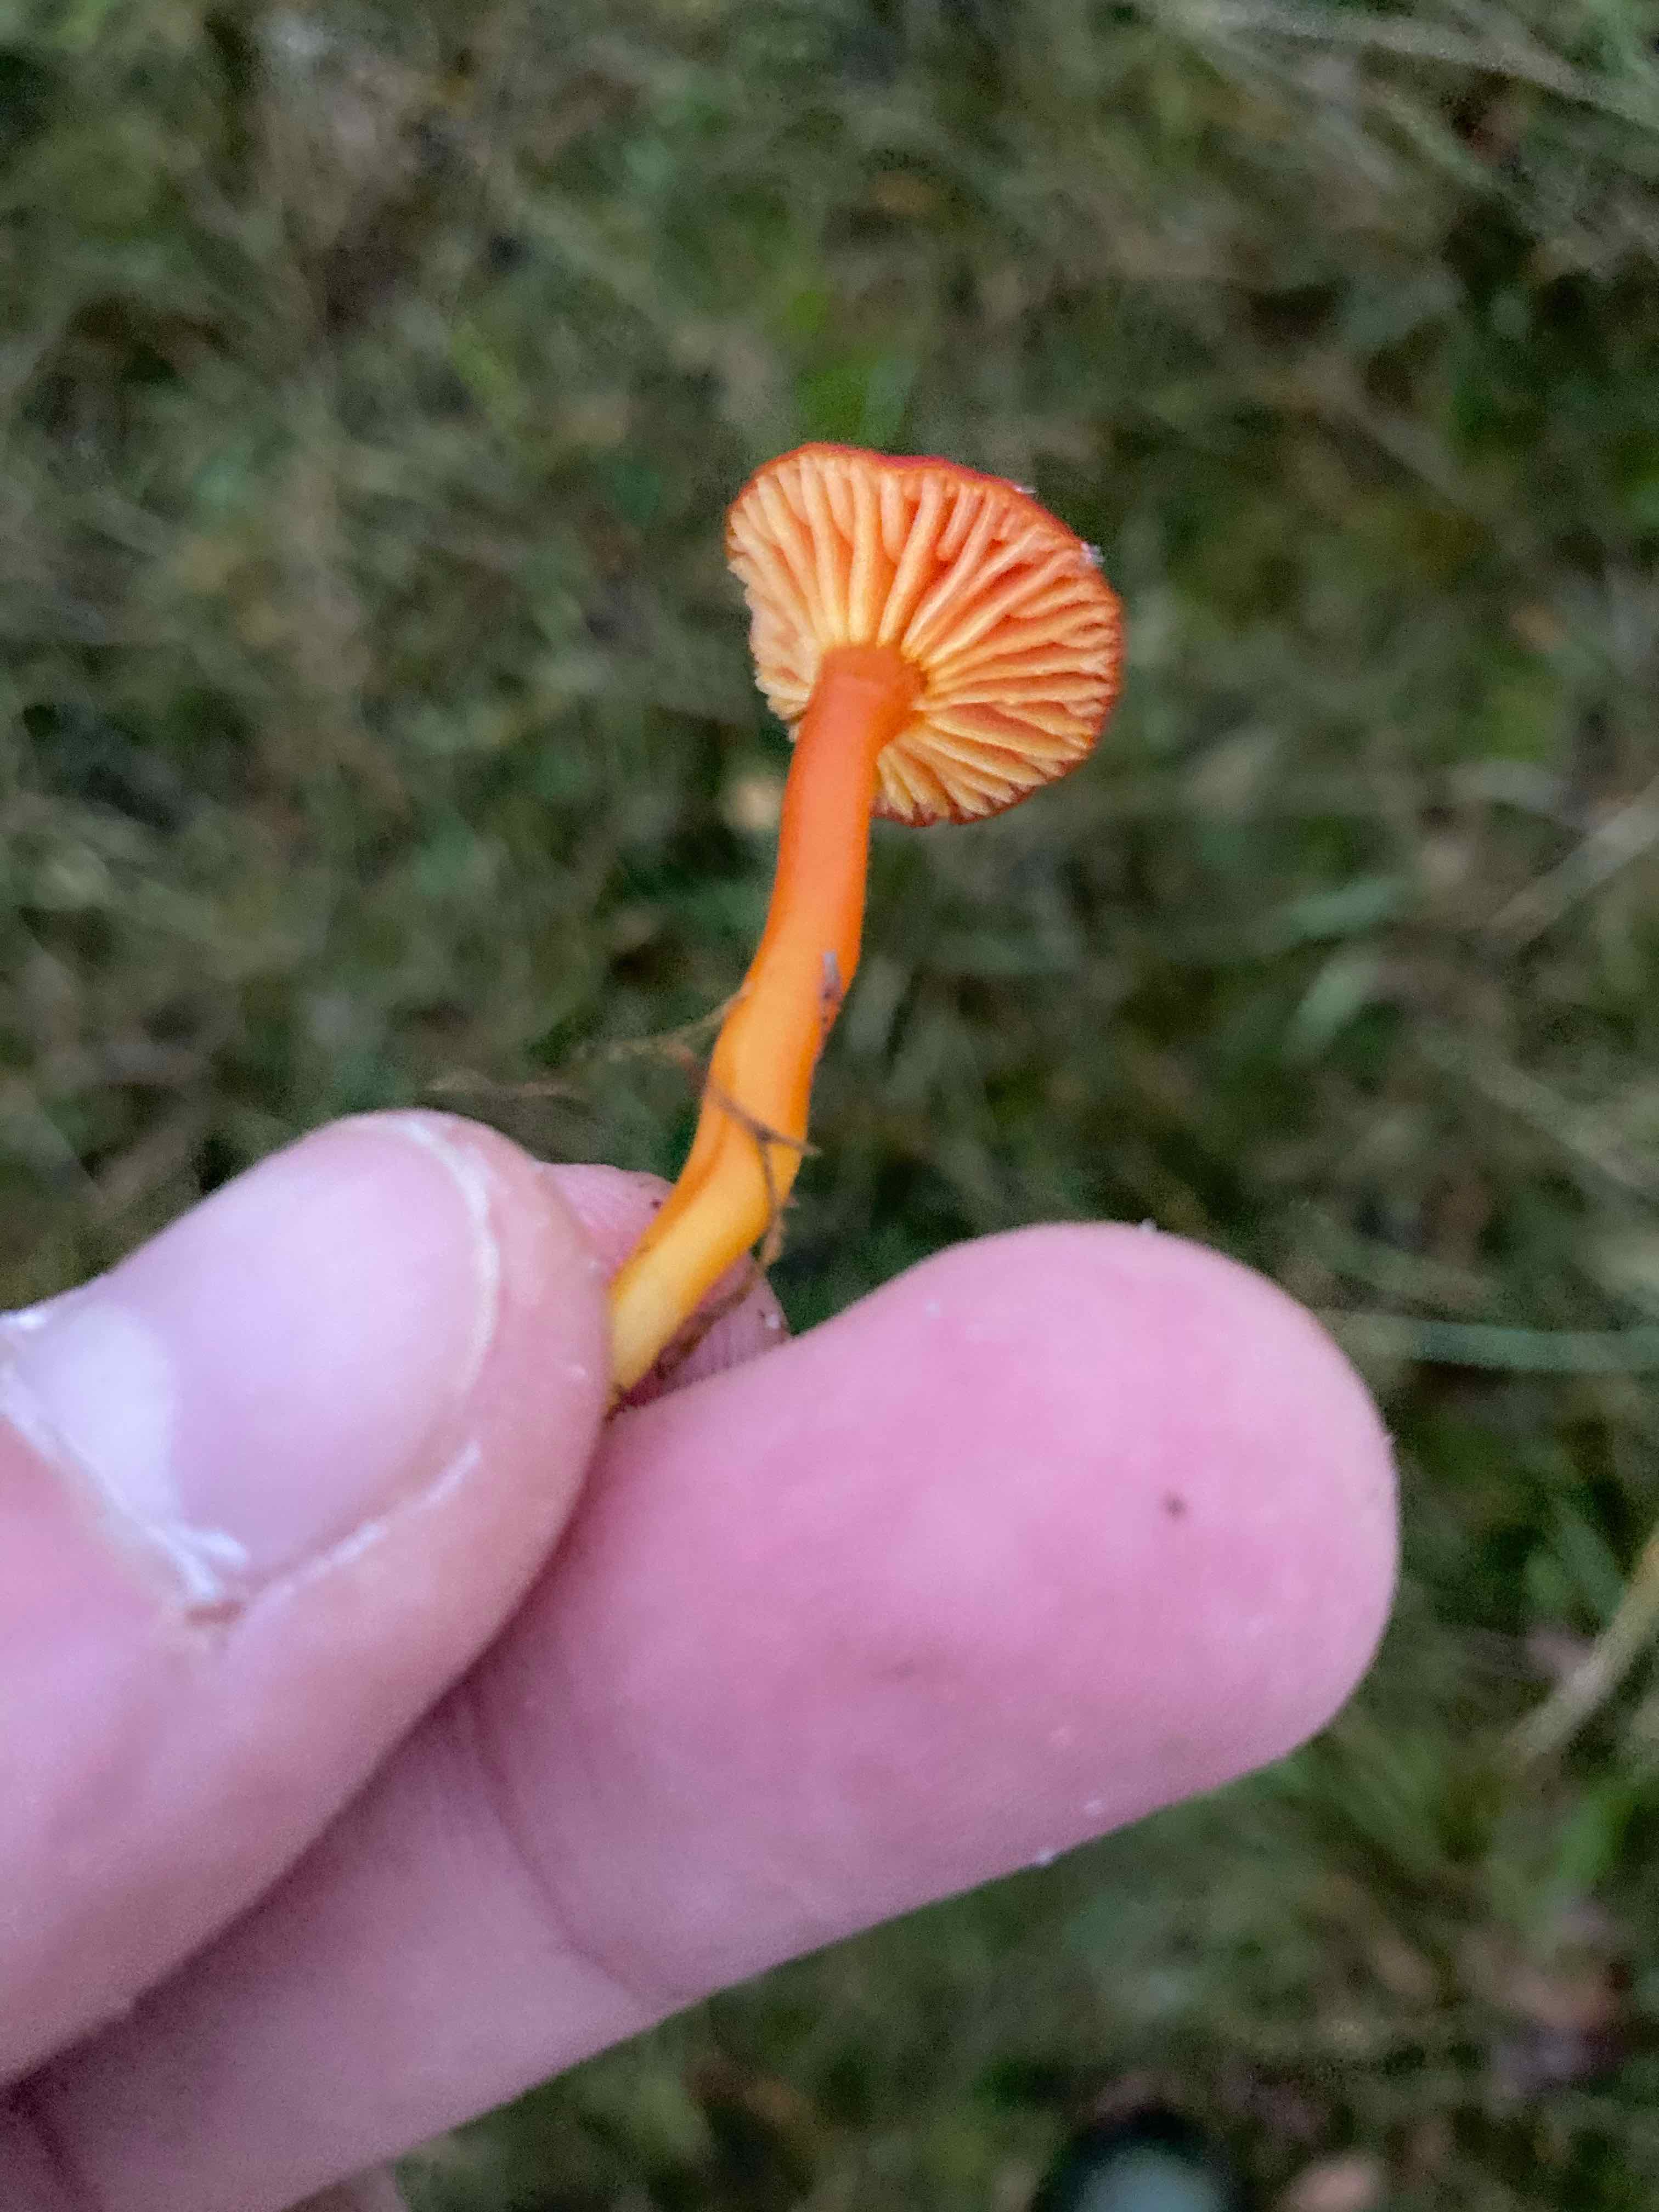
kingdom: Fungi
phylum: Basidiomycota
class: Agaricomycetes
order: Agaricales
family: Hygrophoraceae
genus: Hygrocybe
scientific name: Hygrocybe miniata
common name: mønje-vokshat
